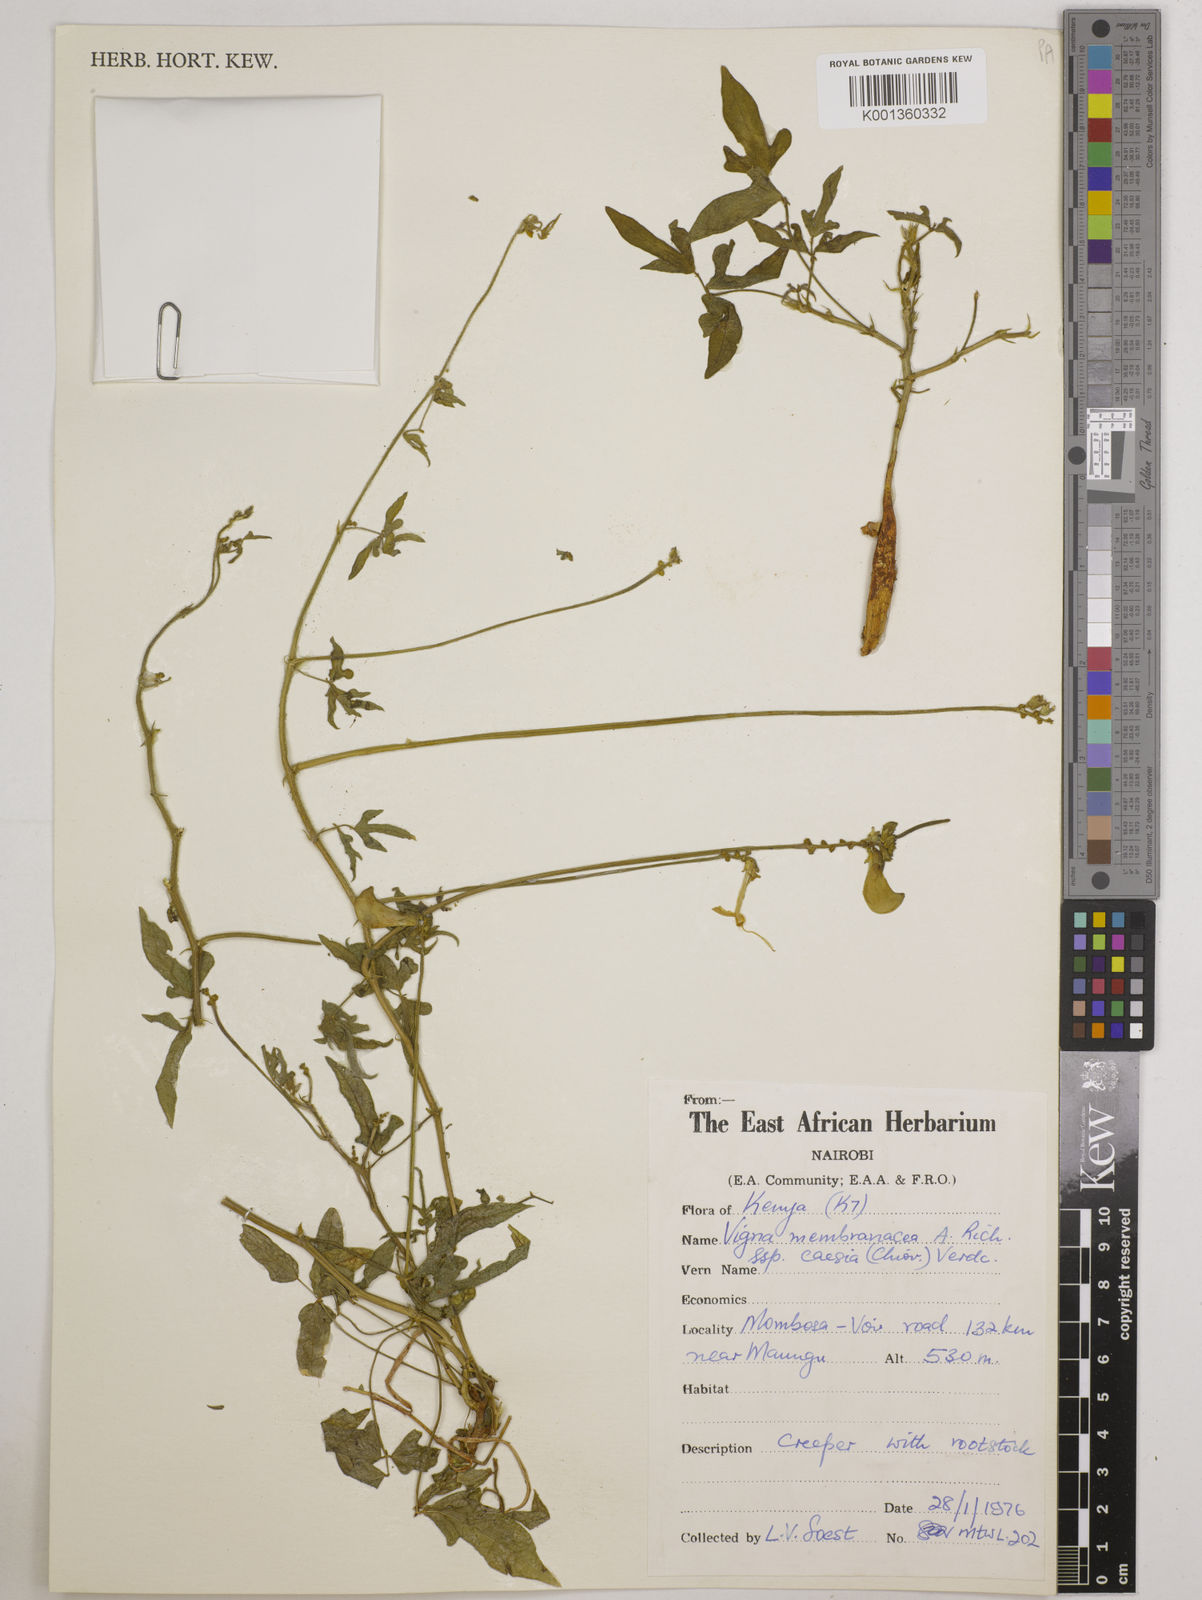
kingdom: Plantae
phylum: Tracheophyta
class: Magnoliopsida
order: Fabales
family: Fabaceae
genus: Vigna
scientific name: Vigna
